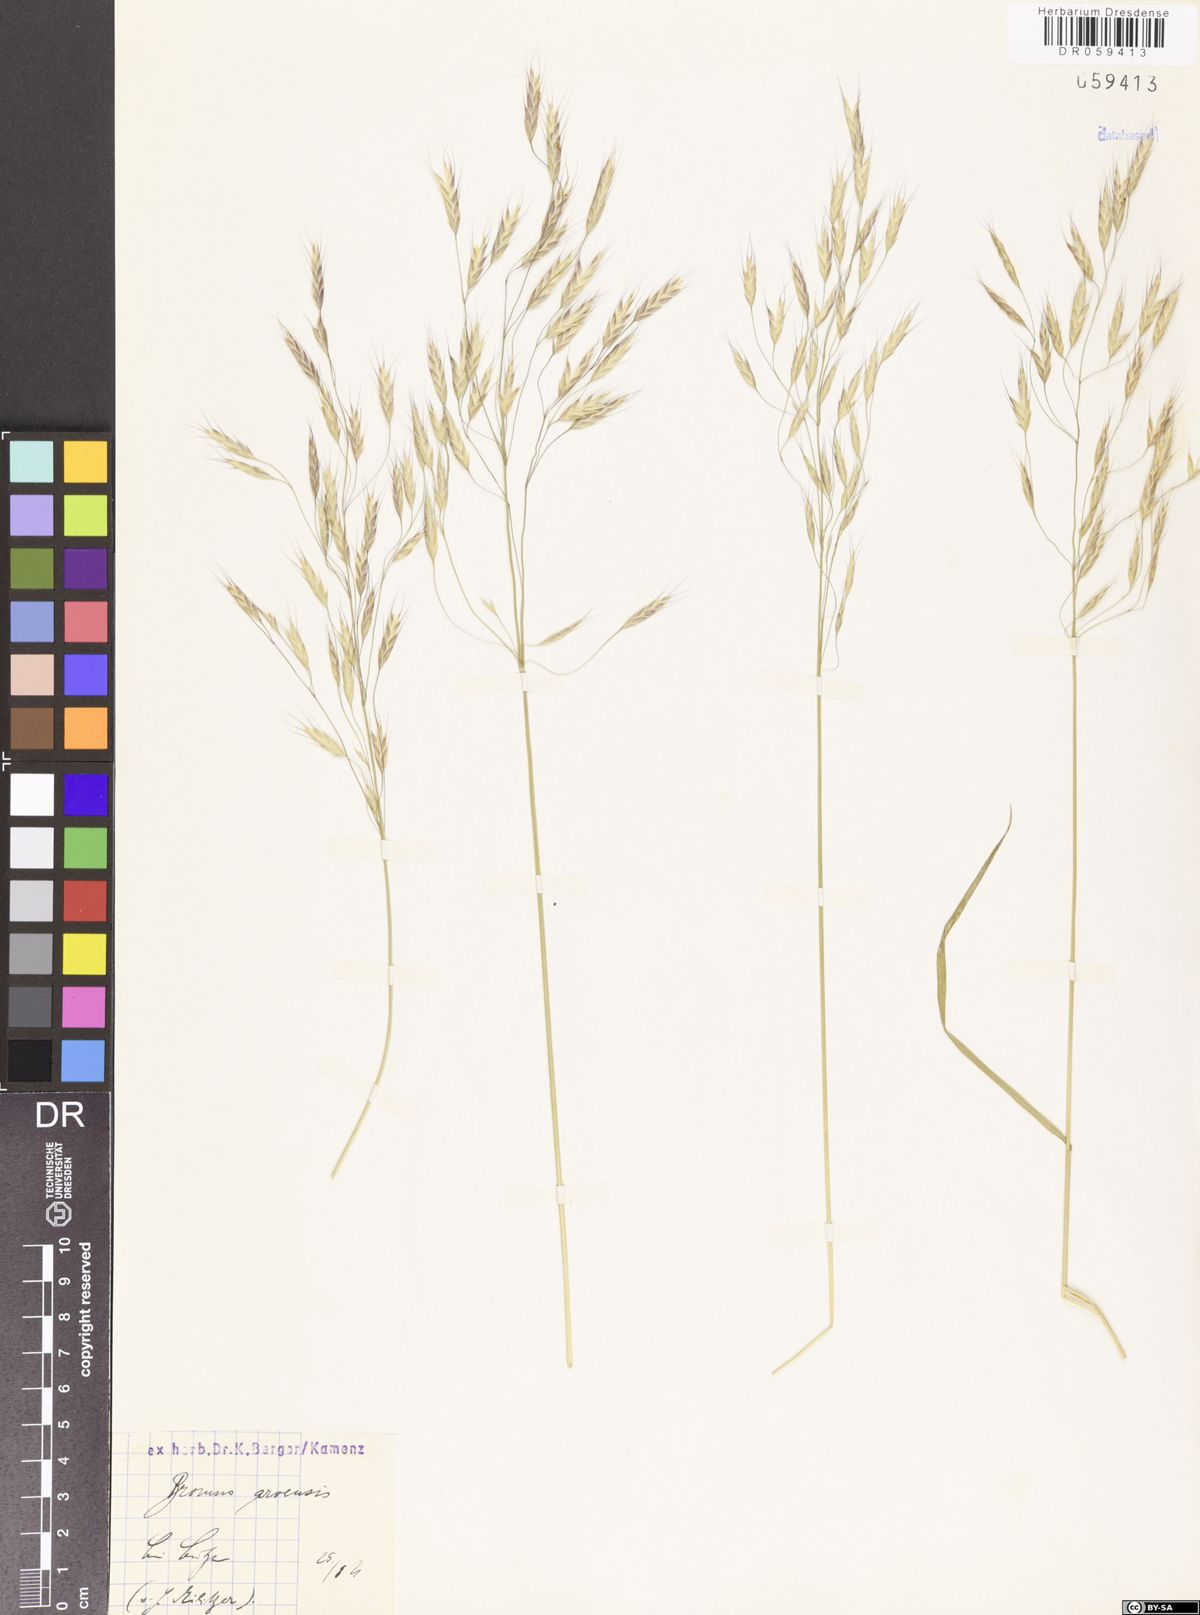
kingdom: Plantae
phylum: Tracheophyta
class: Liliopsida
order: Poales
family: Poaceae
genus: Bromus
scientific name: Bromus arvensis
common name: Field brome
